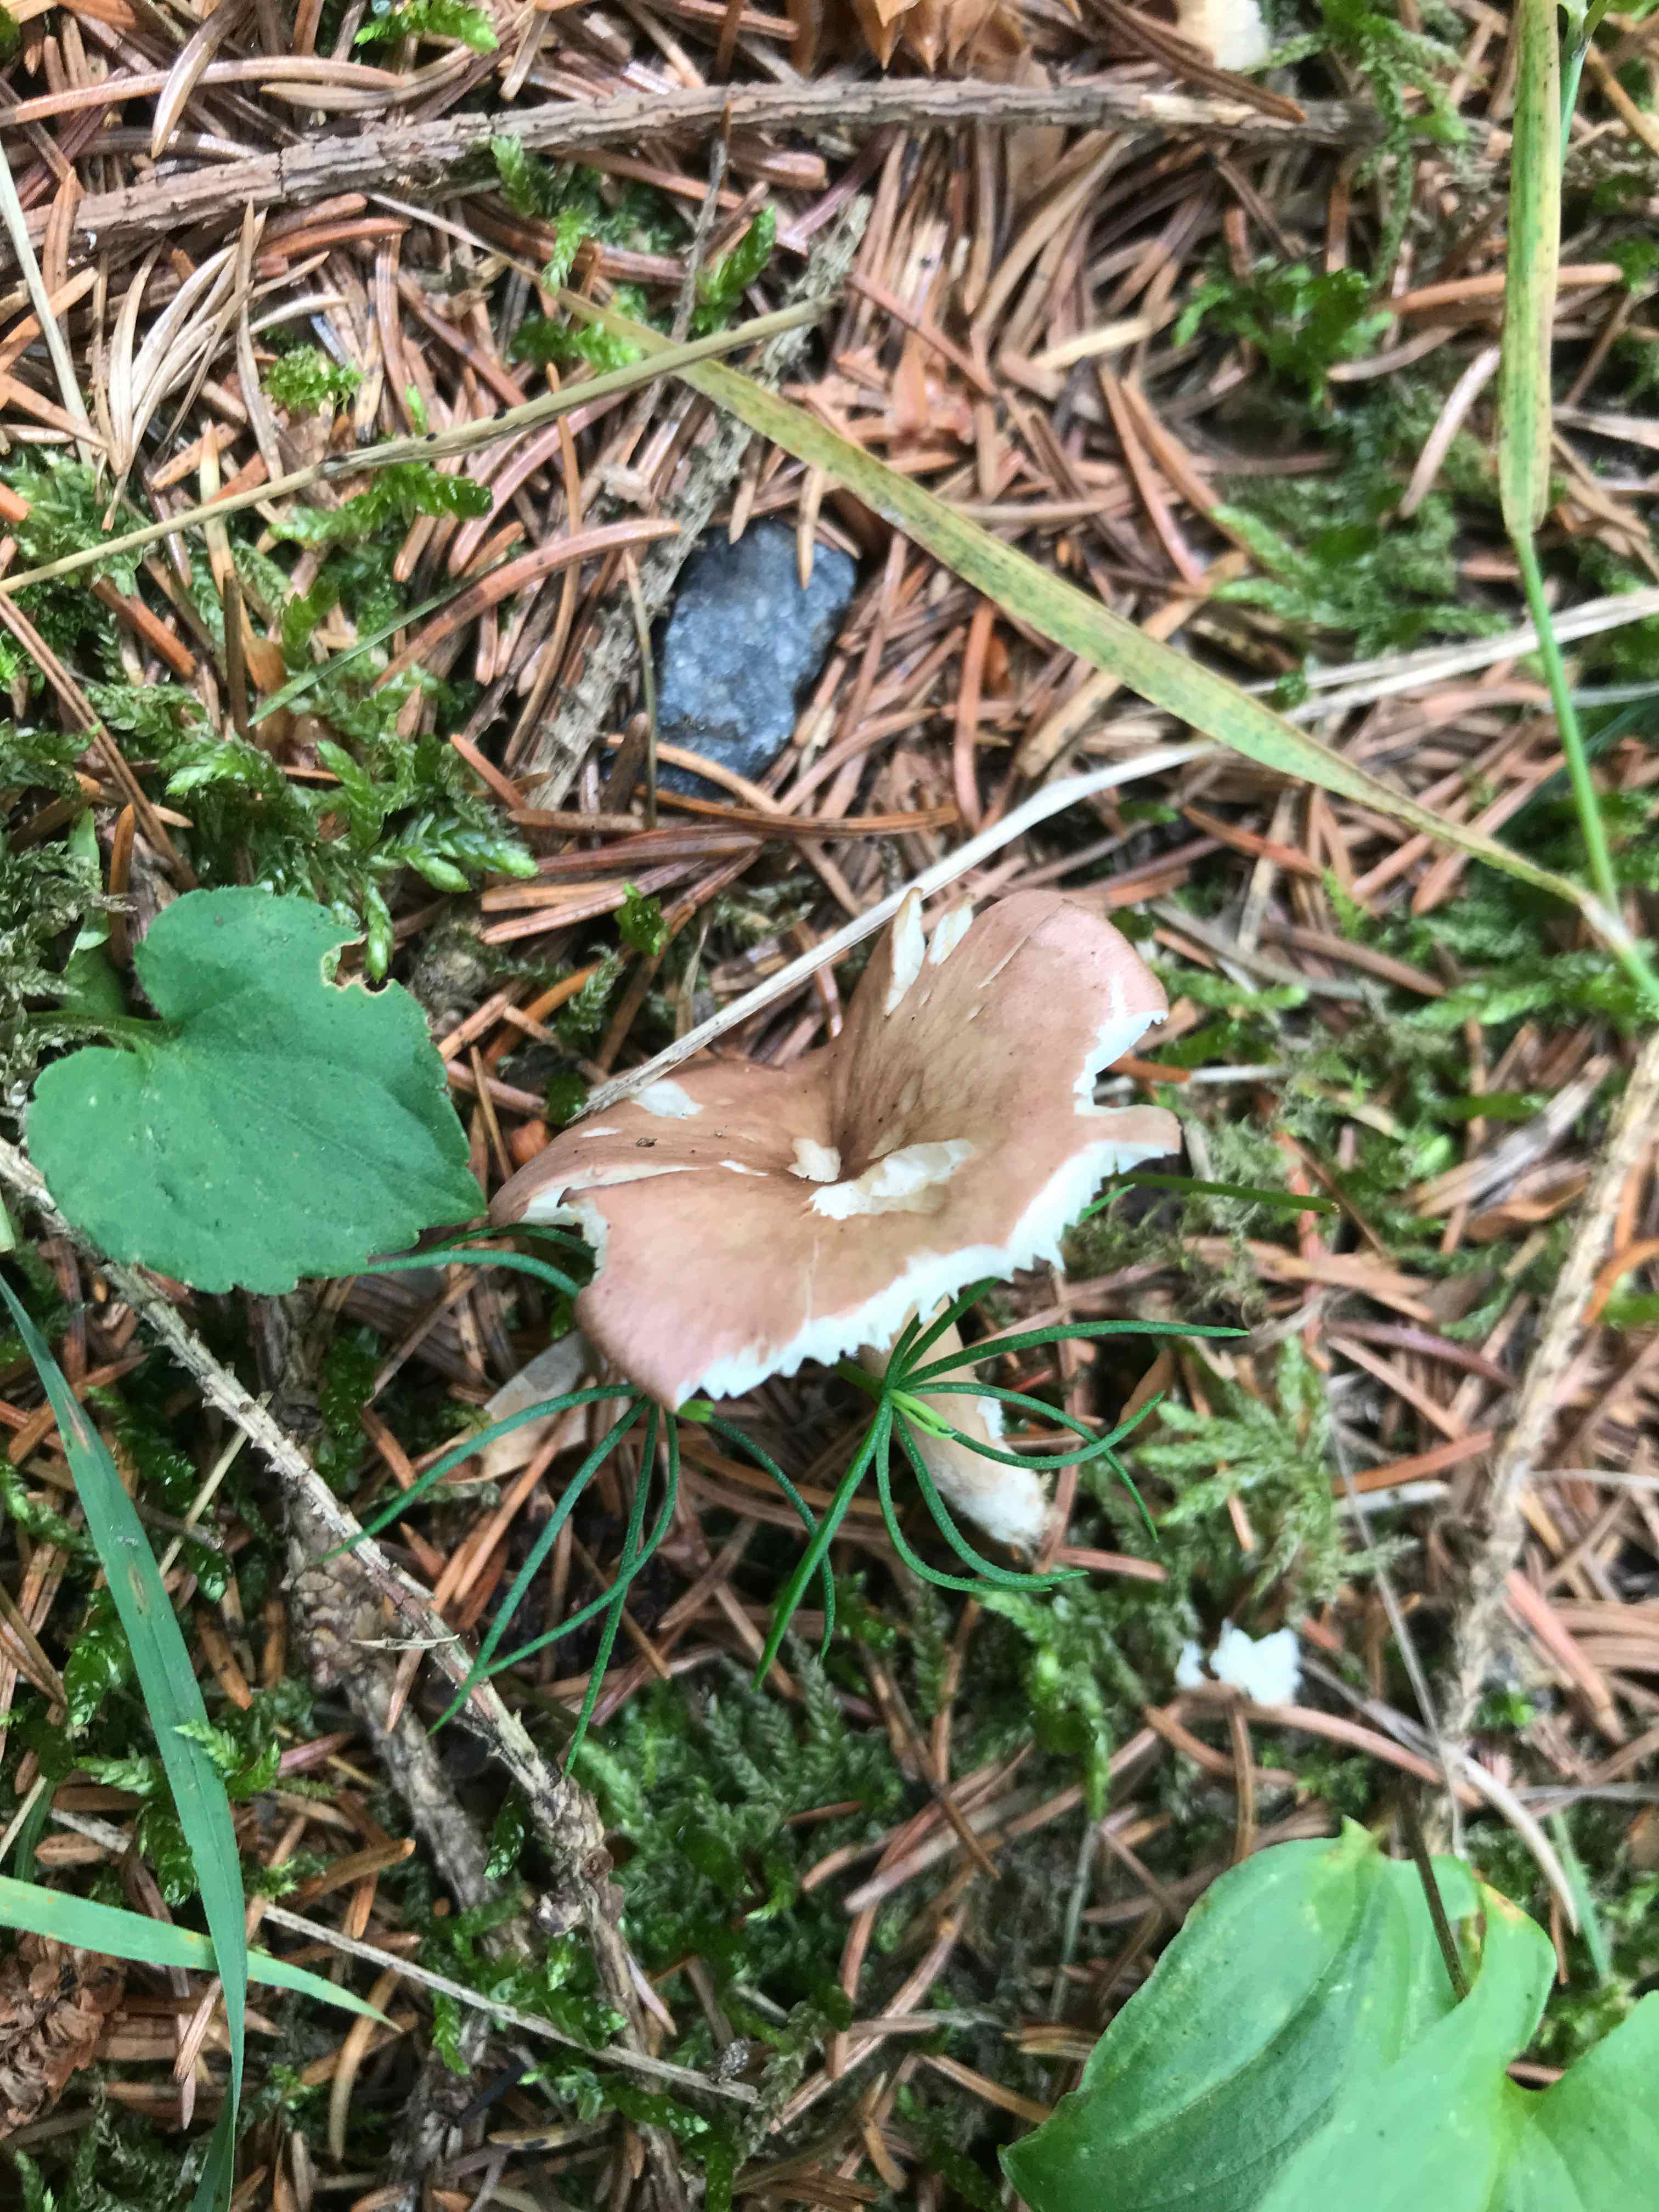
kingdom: Fungi
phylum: Basidiomycota
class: Agaricomycetes
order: Agaricales
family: Lyophyllaceae
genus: Calocybe
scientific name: Calocybe carnea
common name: rosa fagerhat
